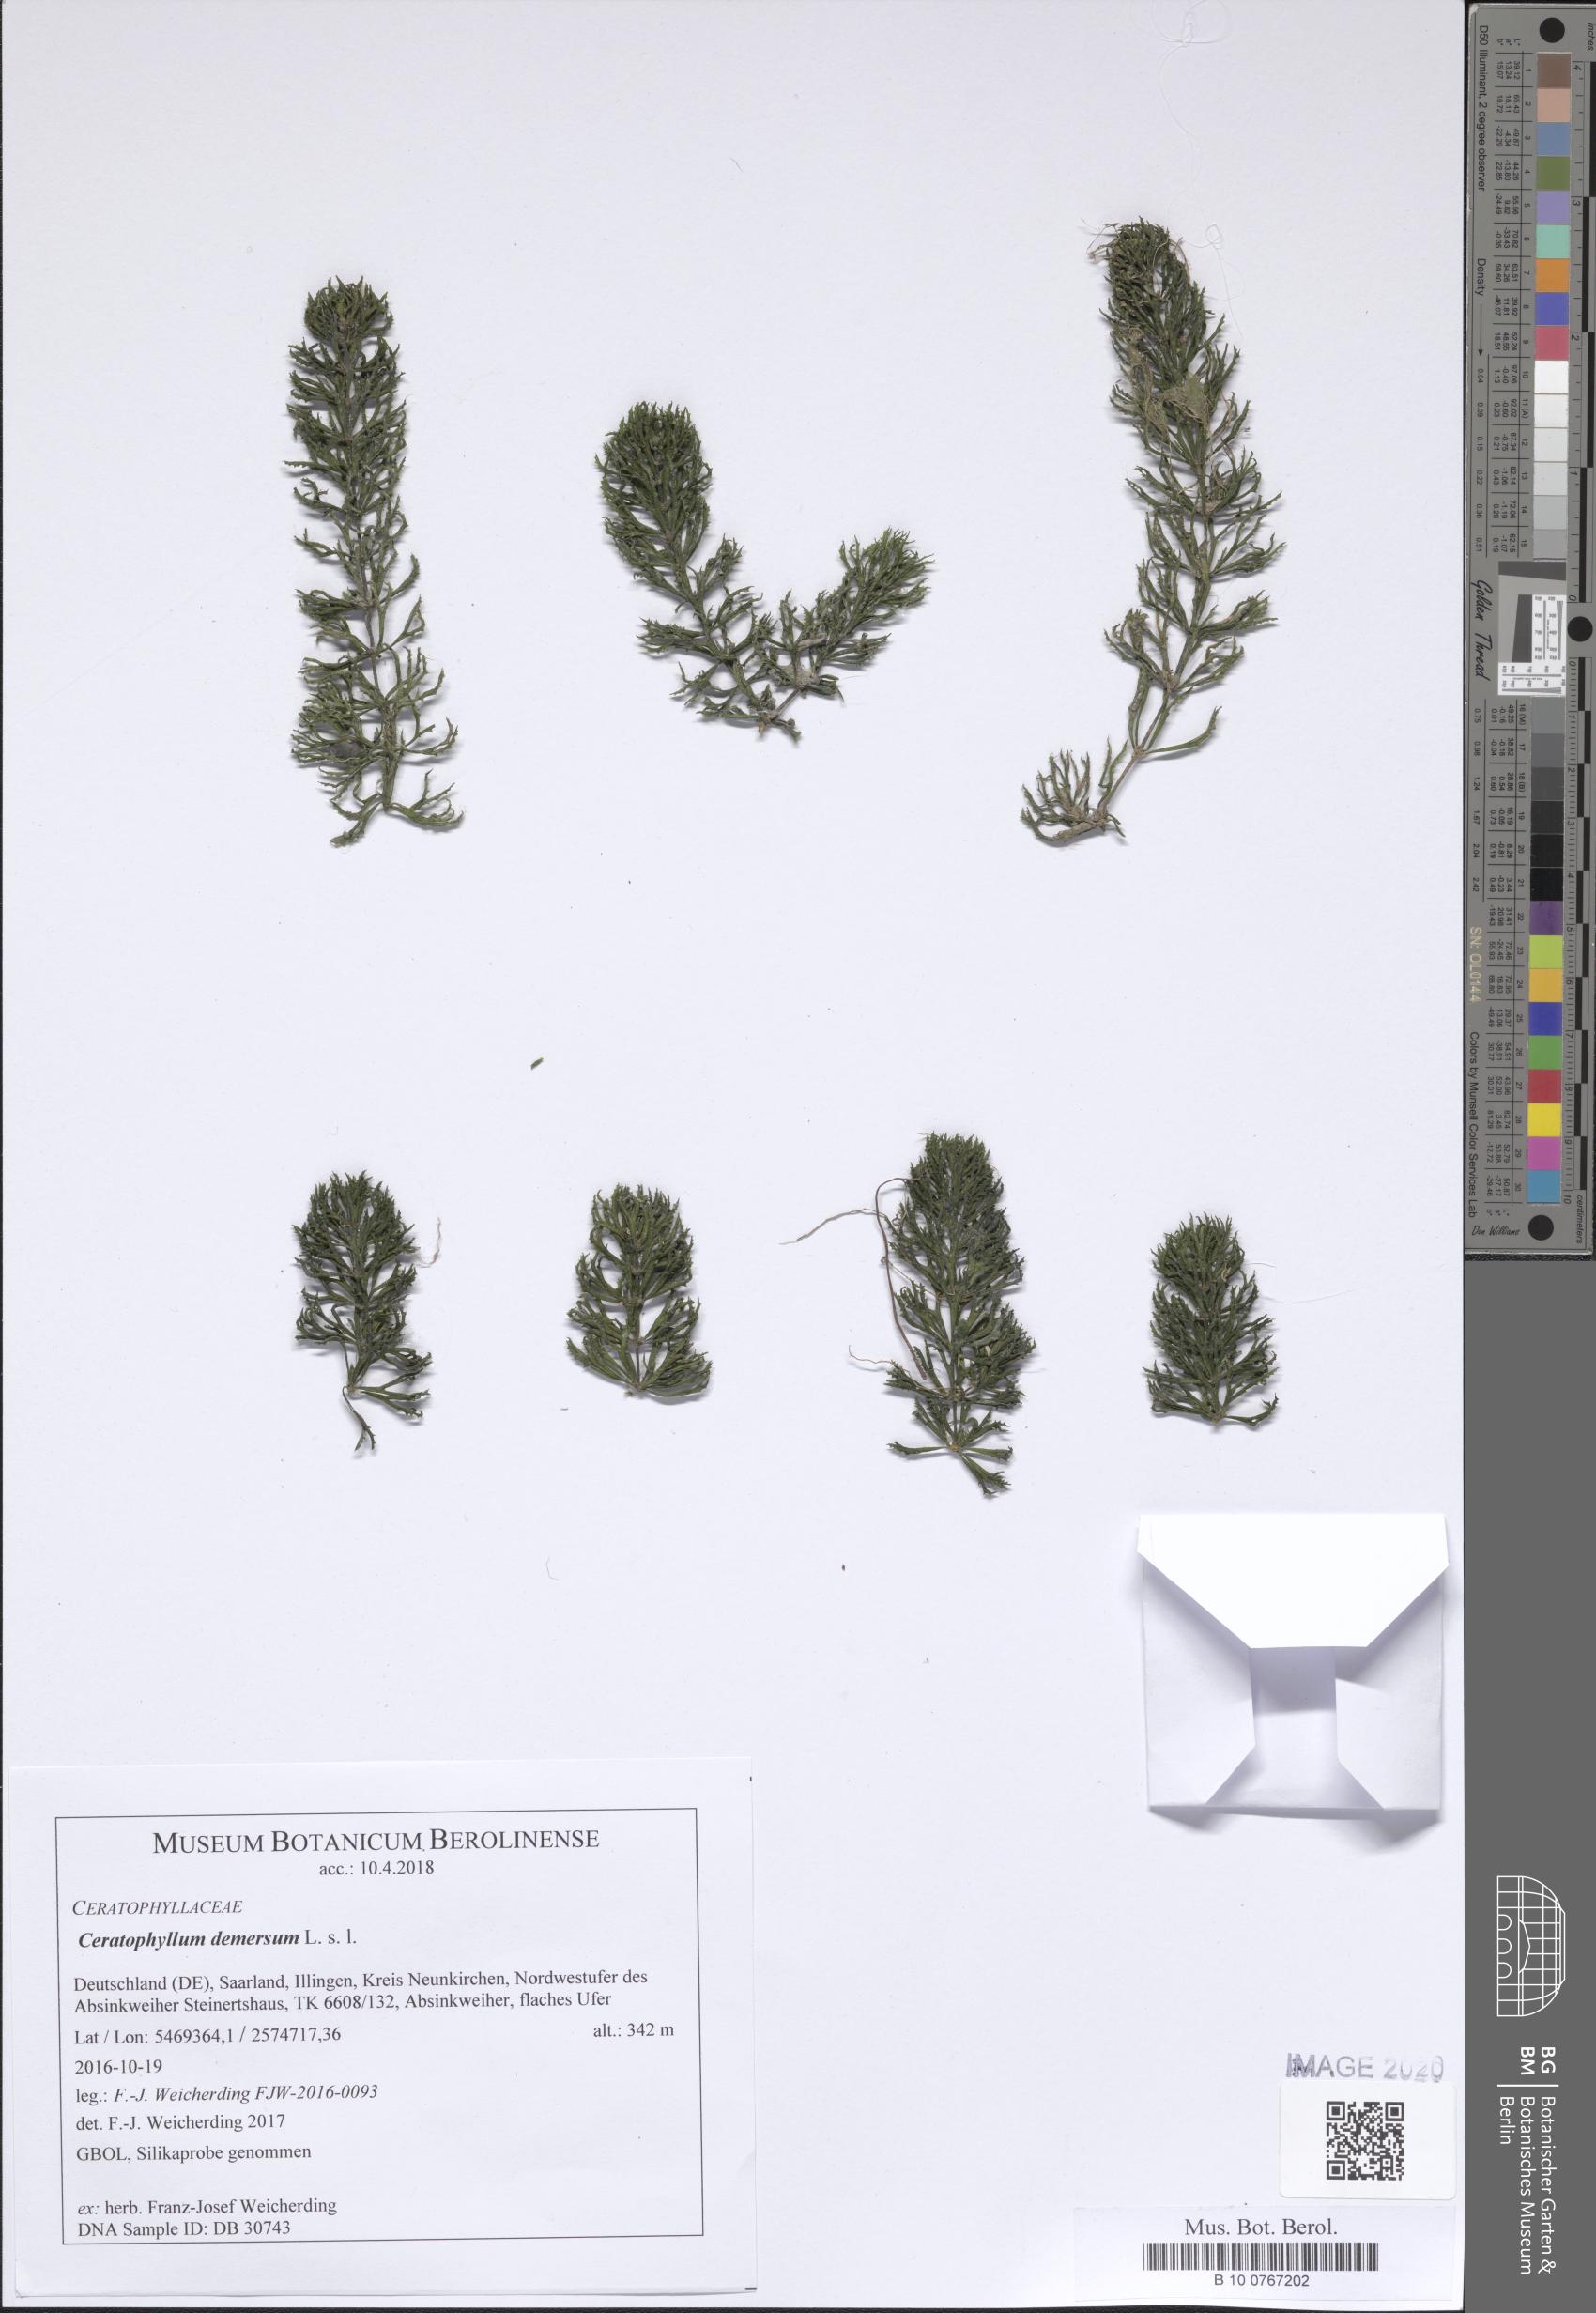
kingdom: Plantae
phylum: Tracheophyta
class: Magnoliopsida
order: Ceratophyllales
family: Ceratophyllaceae
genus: Ceratophyllum
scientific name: Ceratophyllum demersum
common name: Rigid hornwort
